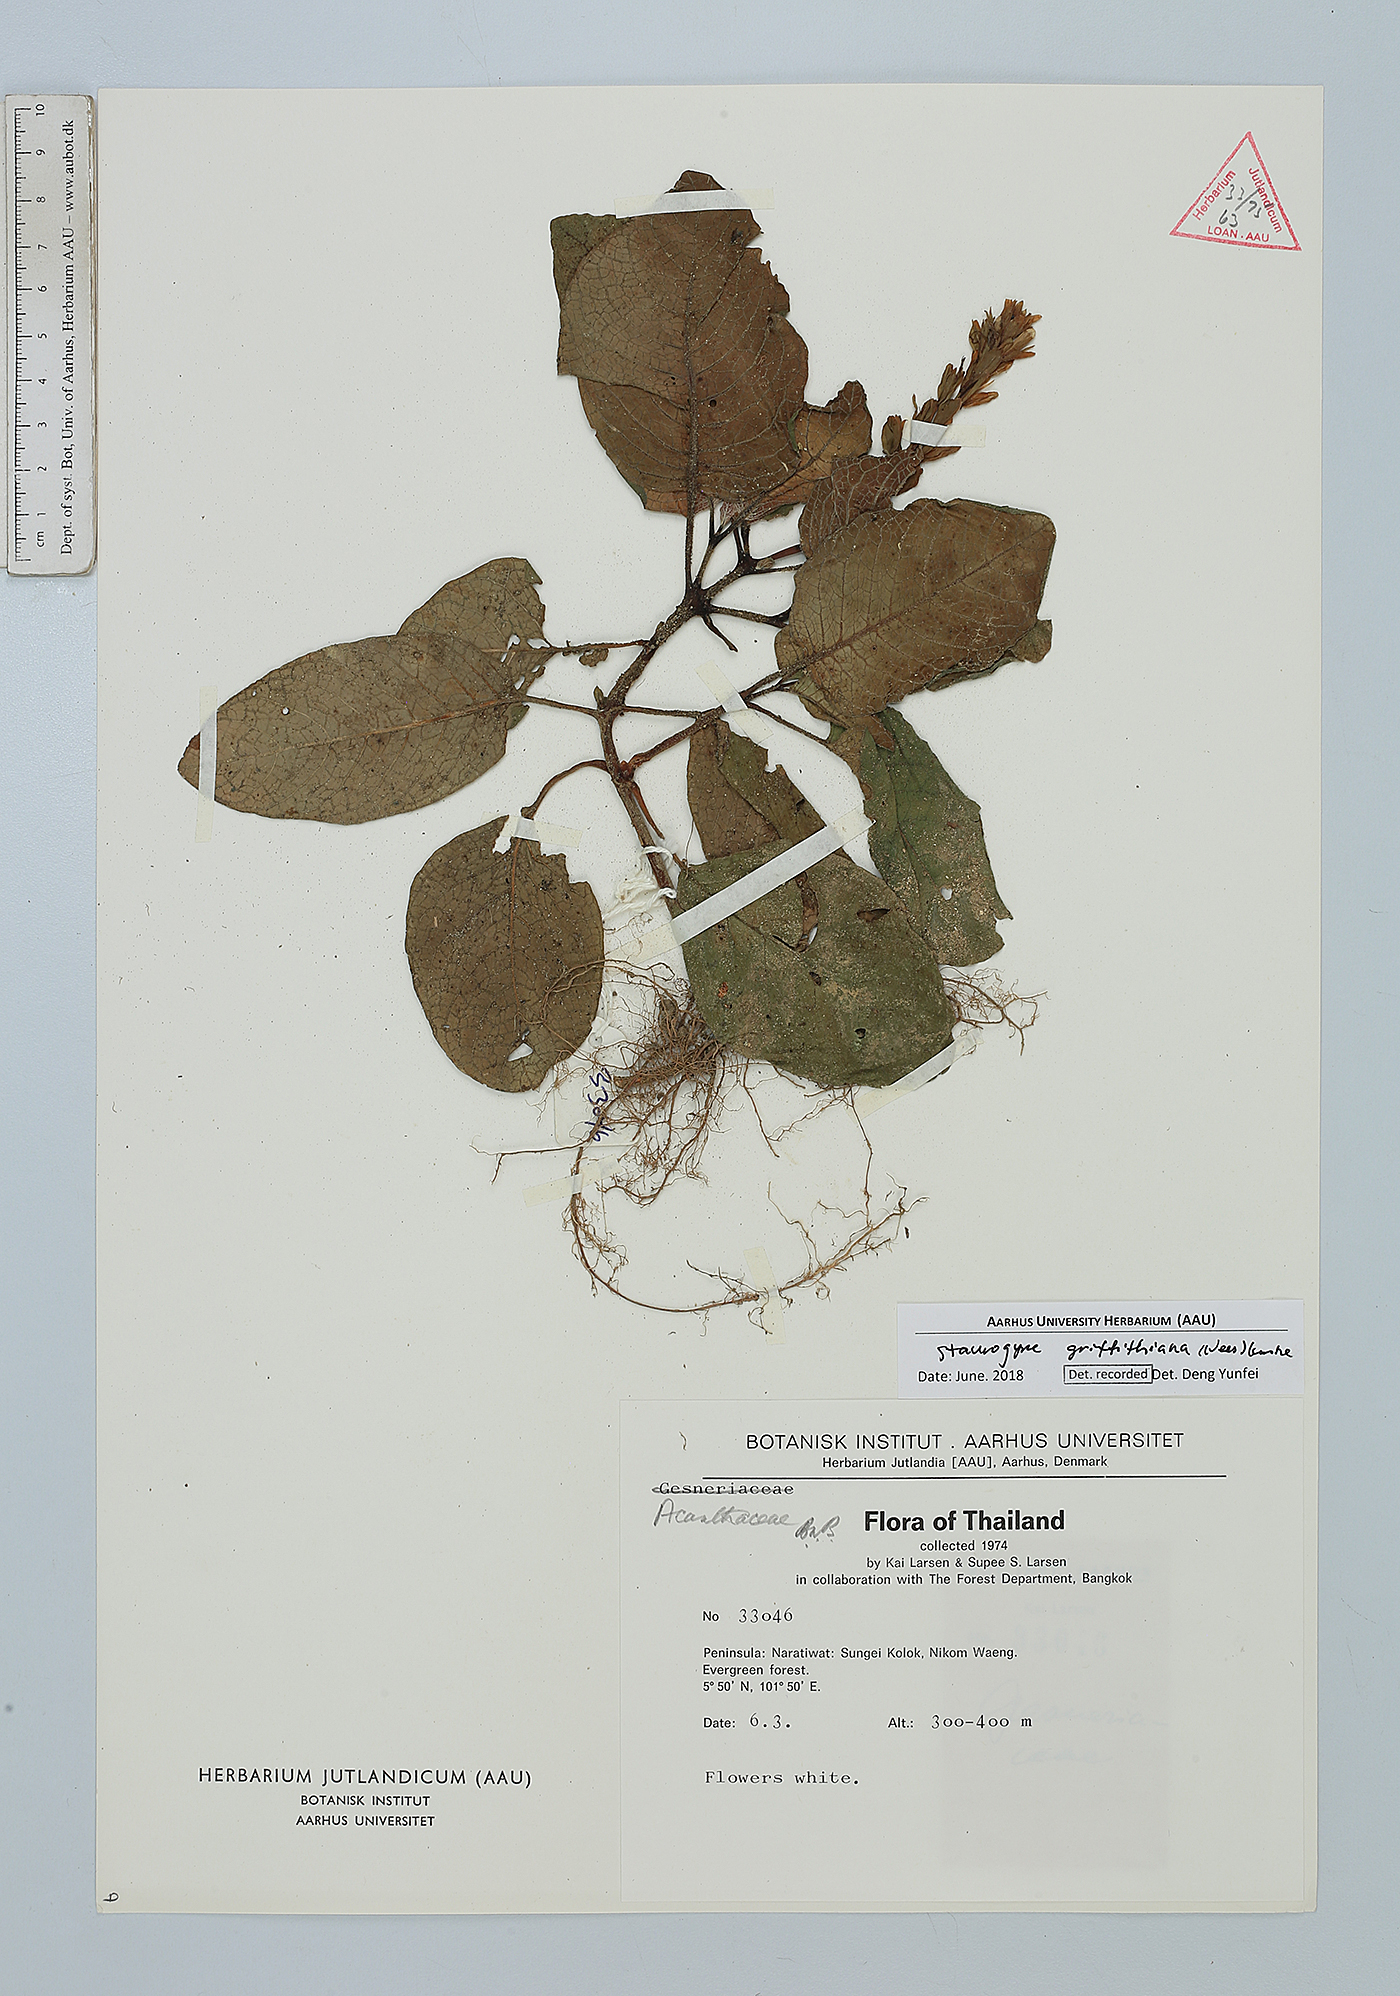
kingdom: Plantae
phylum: Tracheophyta
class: Magnoliopsida
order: Lamiales
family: Acanthaceae
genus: Strobilanthes
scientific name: Strobilanthes denticulata
